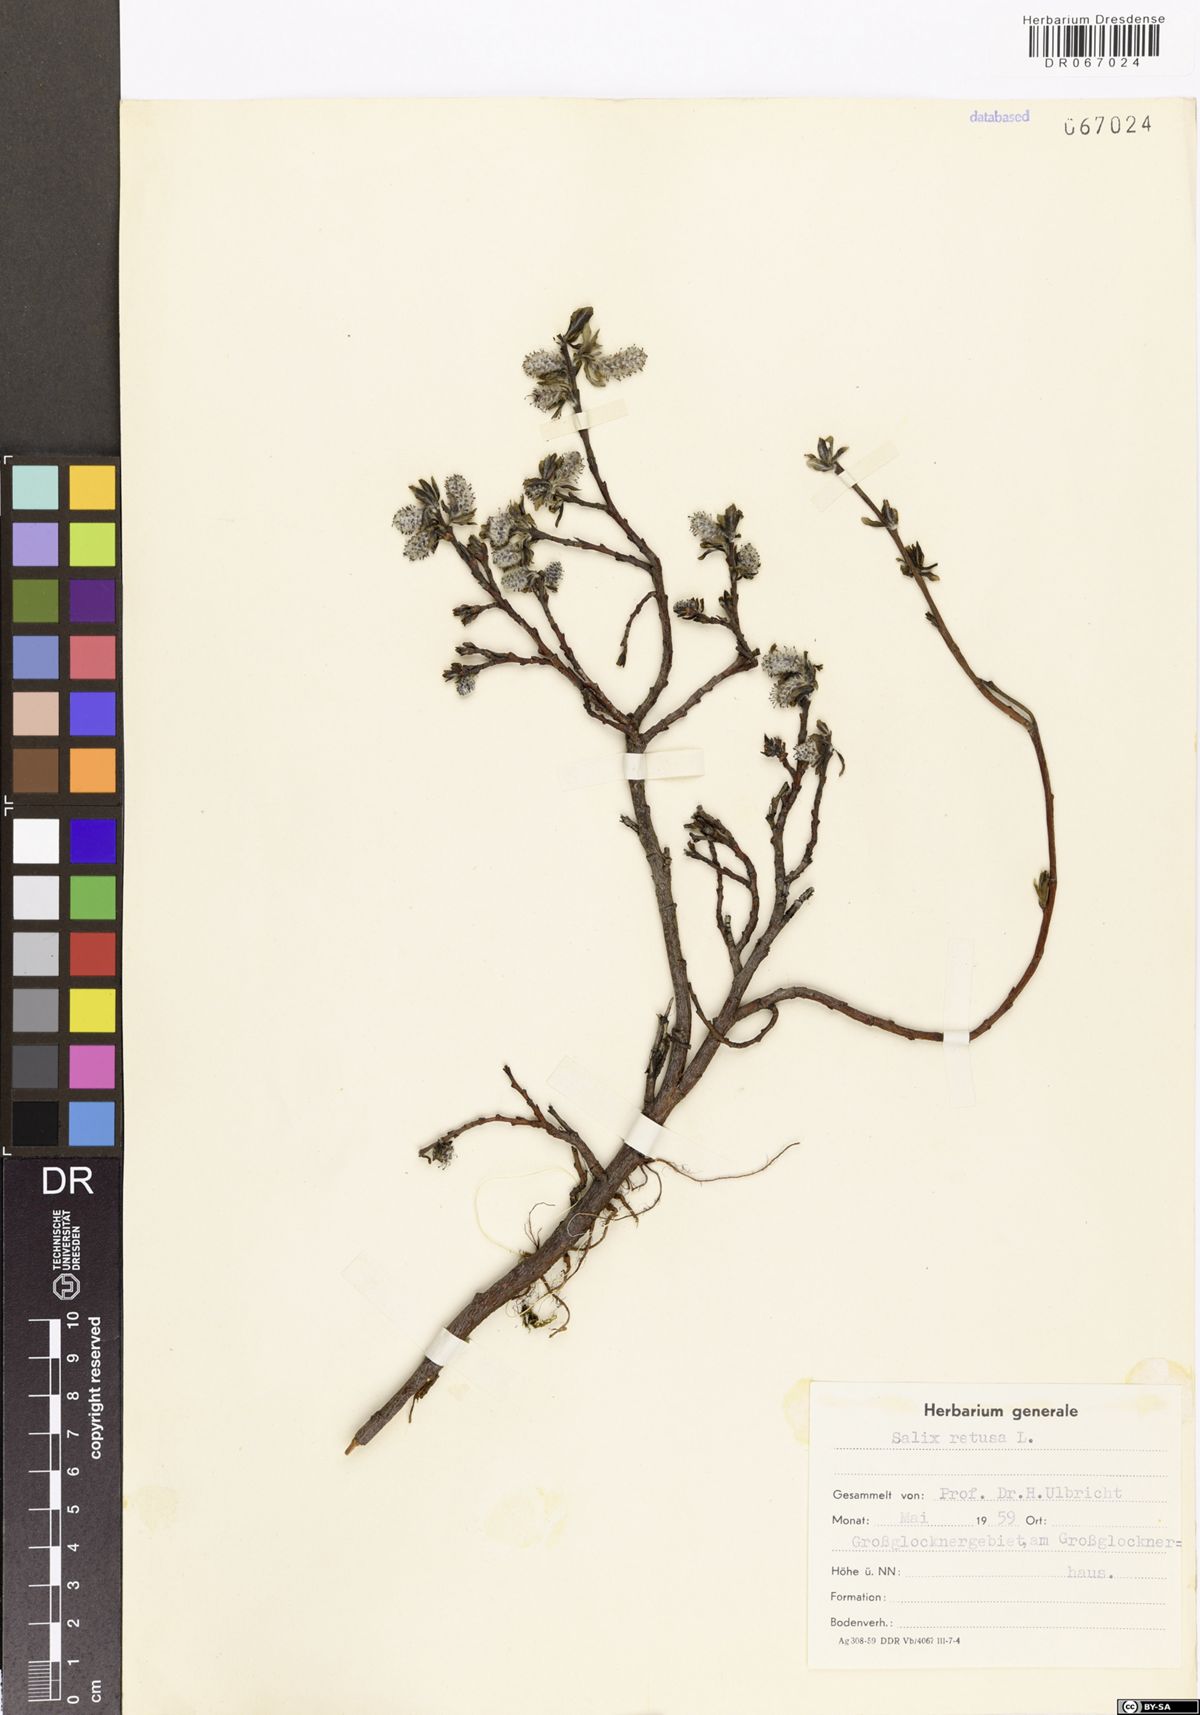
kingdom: Plantae
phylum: Tracheophyta
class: Magnoliopsida
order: Malpighiales
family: Salicaceae
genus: Salix
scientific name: Salix retusa
